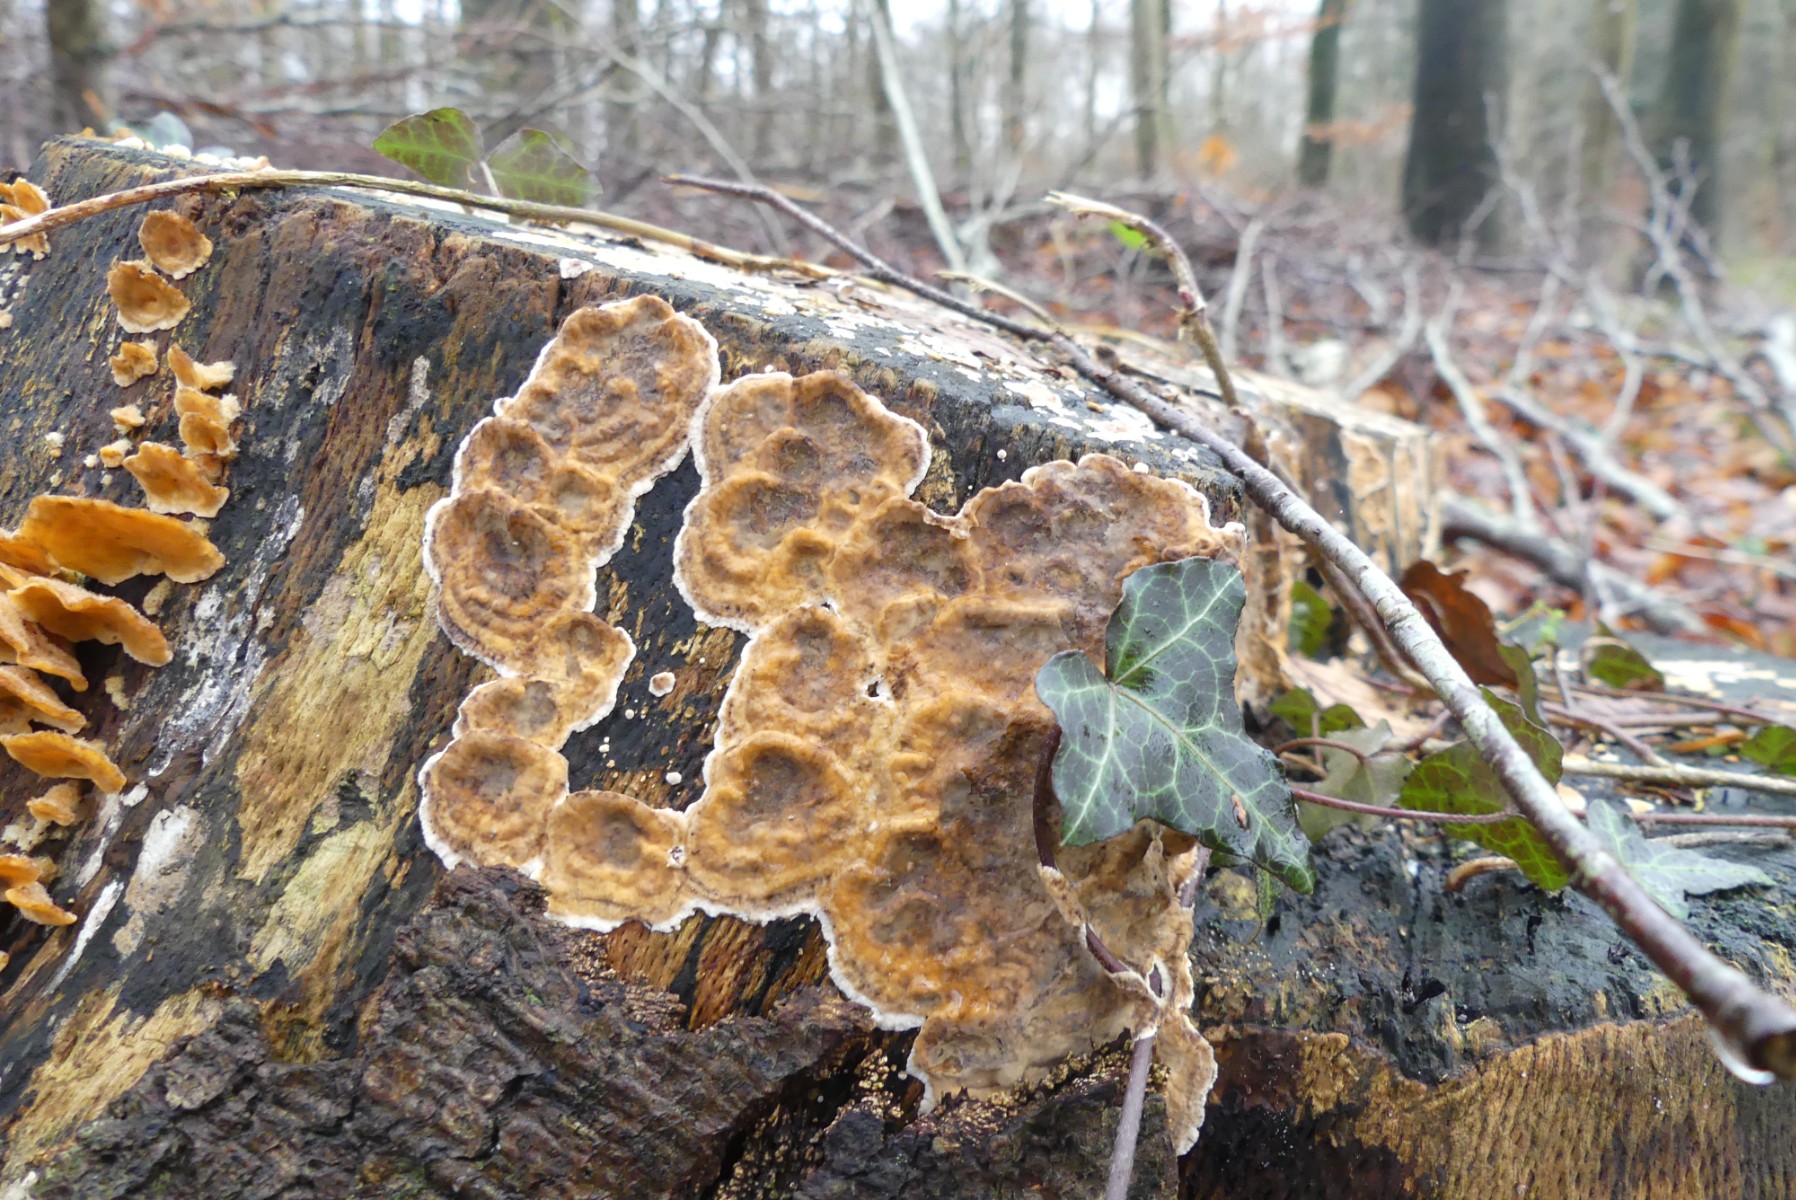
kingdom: Fungi
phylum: Basidiomycota
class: Agaricomycetes
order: Russulales
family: Stereaceae
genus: Stereum
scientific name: Stereum rugosum
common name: rynket lædersvamp
